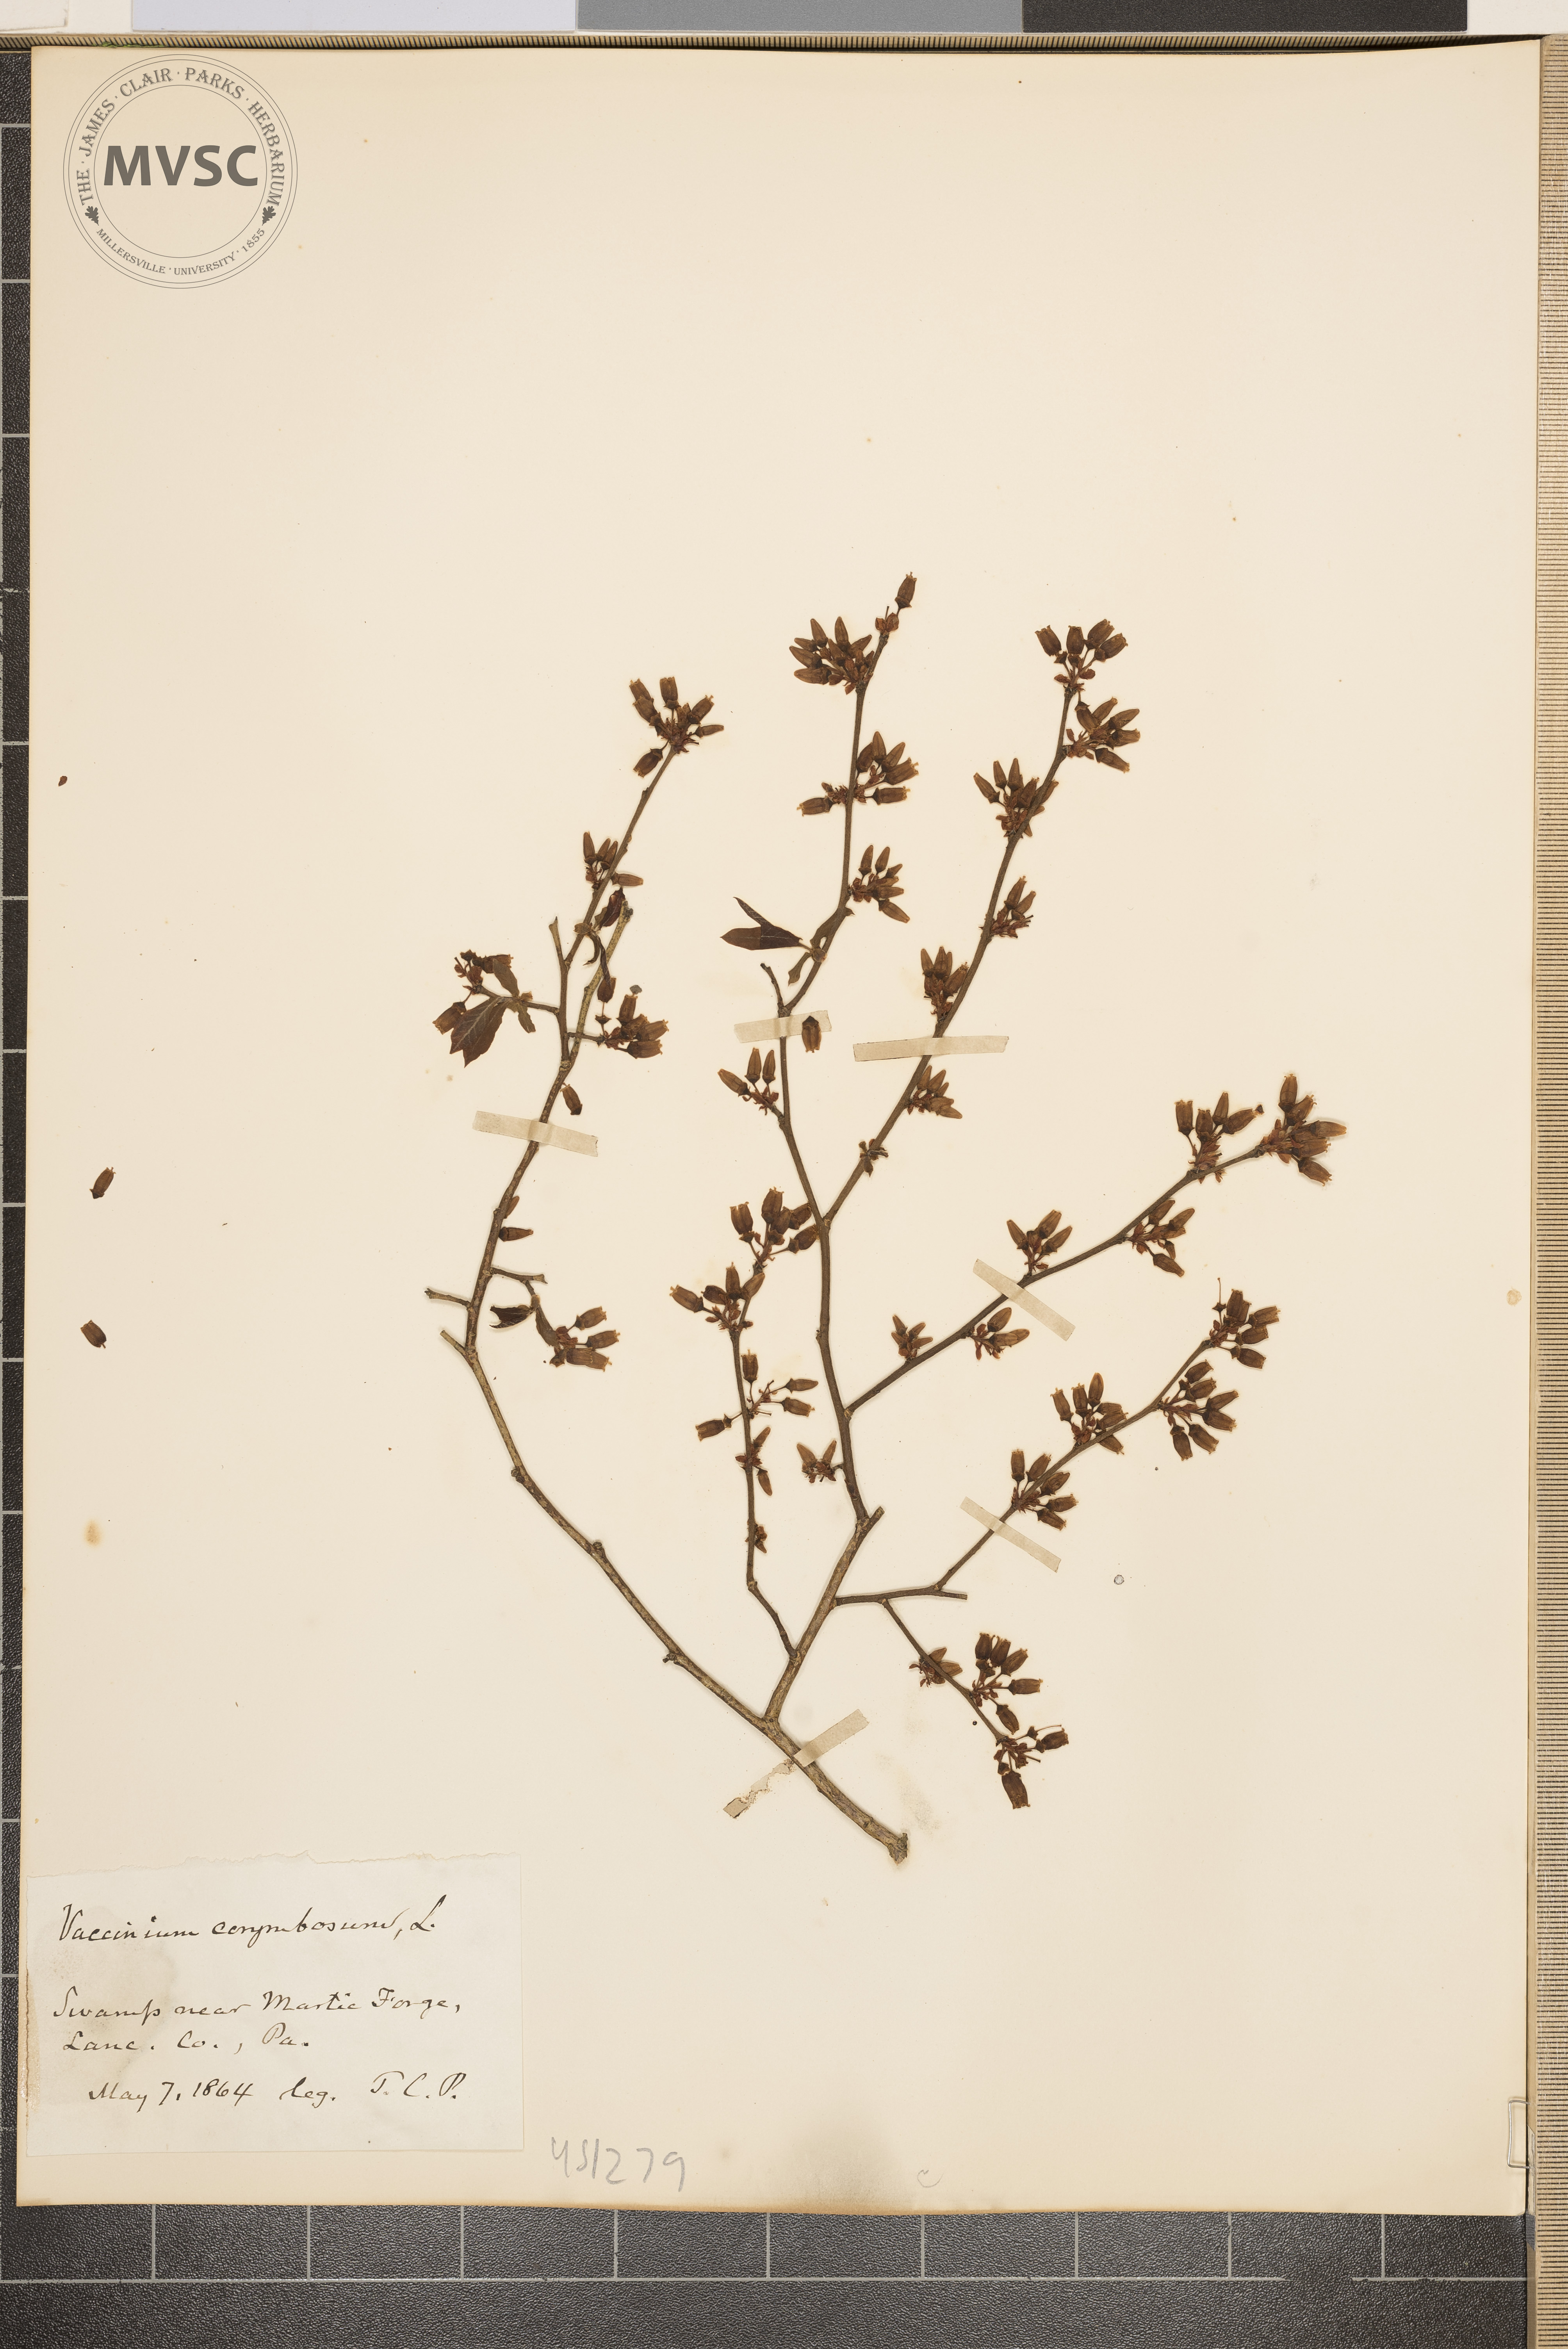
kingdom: Plantae
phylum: Tracheophyta
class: Magnoliopsida
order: Ericales
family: Ericaceae
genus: Vaccinium
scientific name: Vaccinium corymbosum
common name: Blueberry
